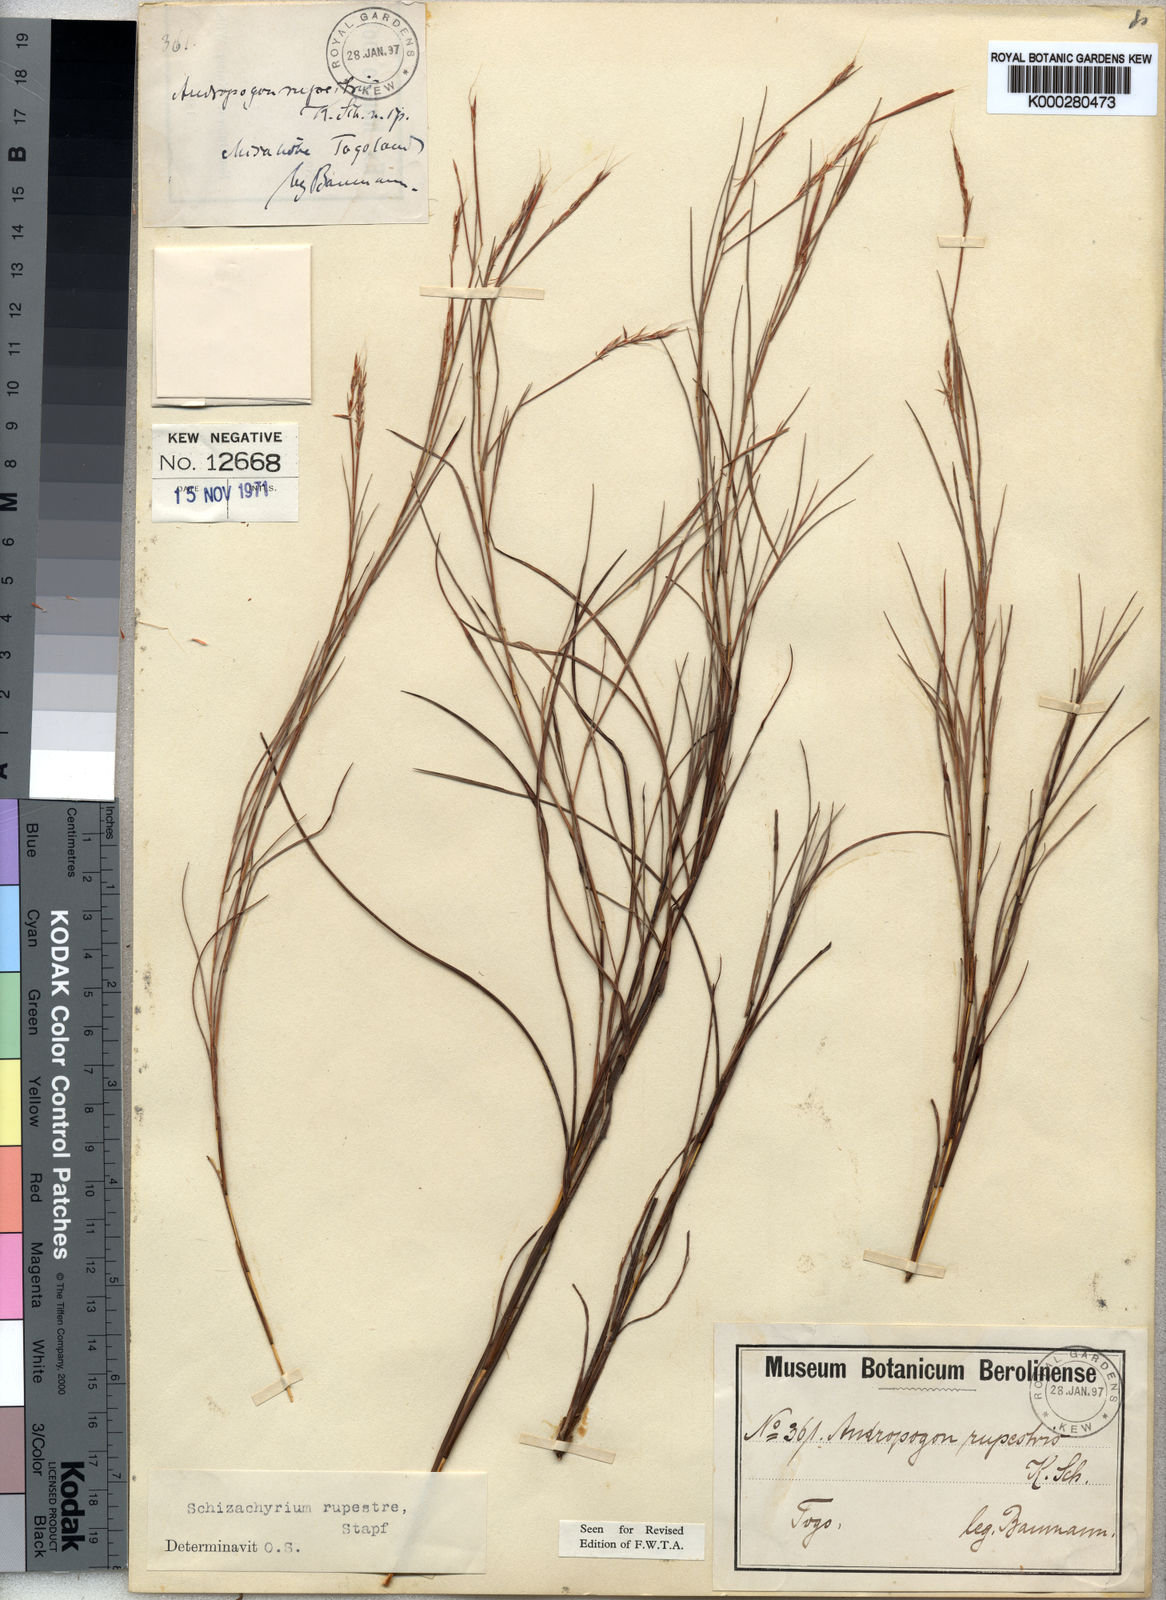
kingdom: Plantae
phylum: Tracheophyta
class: Liliopsida
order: Poales
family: Poaceae
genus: Andropogon
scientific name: Andropogon rupestris
